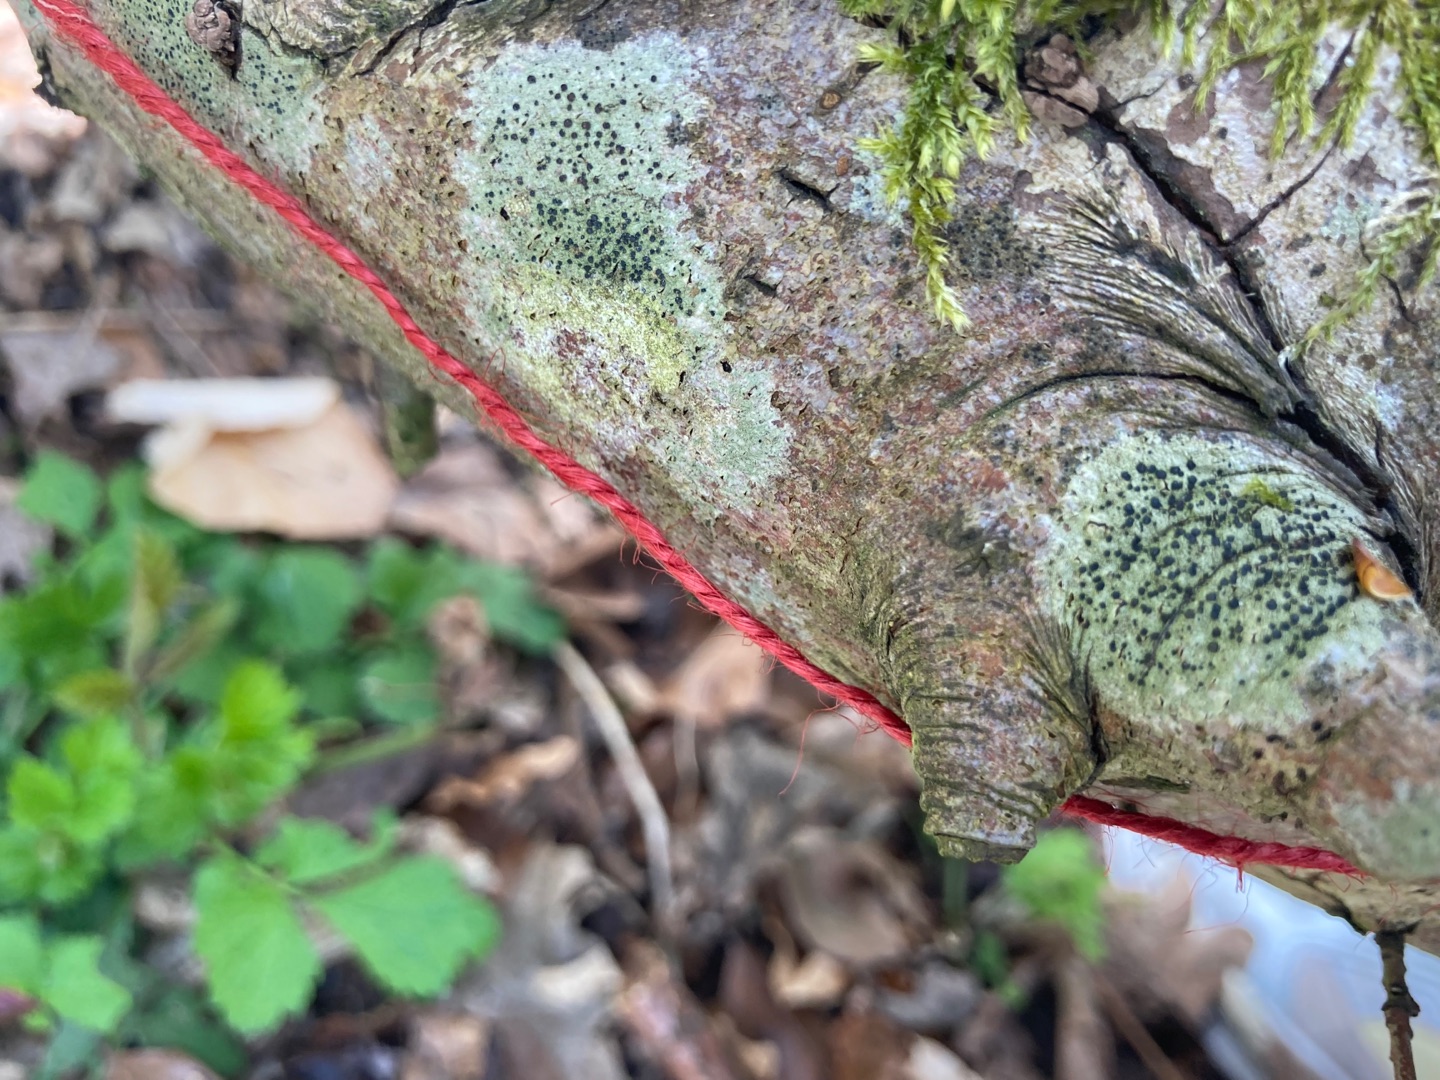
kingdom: Fungi
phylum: Ascomycota
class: Lecanoromycetes
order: Lecanorales
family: Lecanoraceae
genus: Lecidella
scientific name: Lecidella elaeochroma
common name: Grågrøn skivelav
